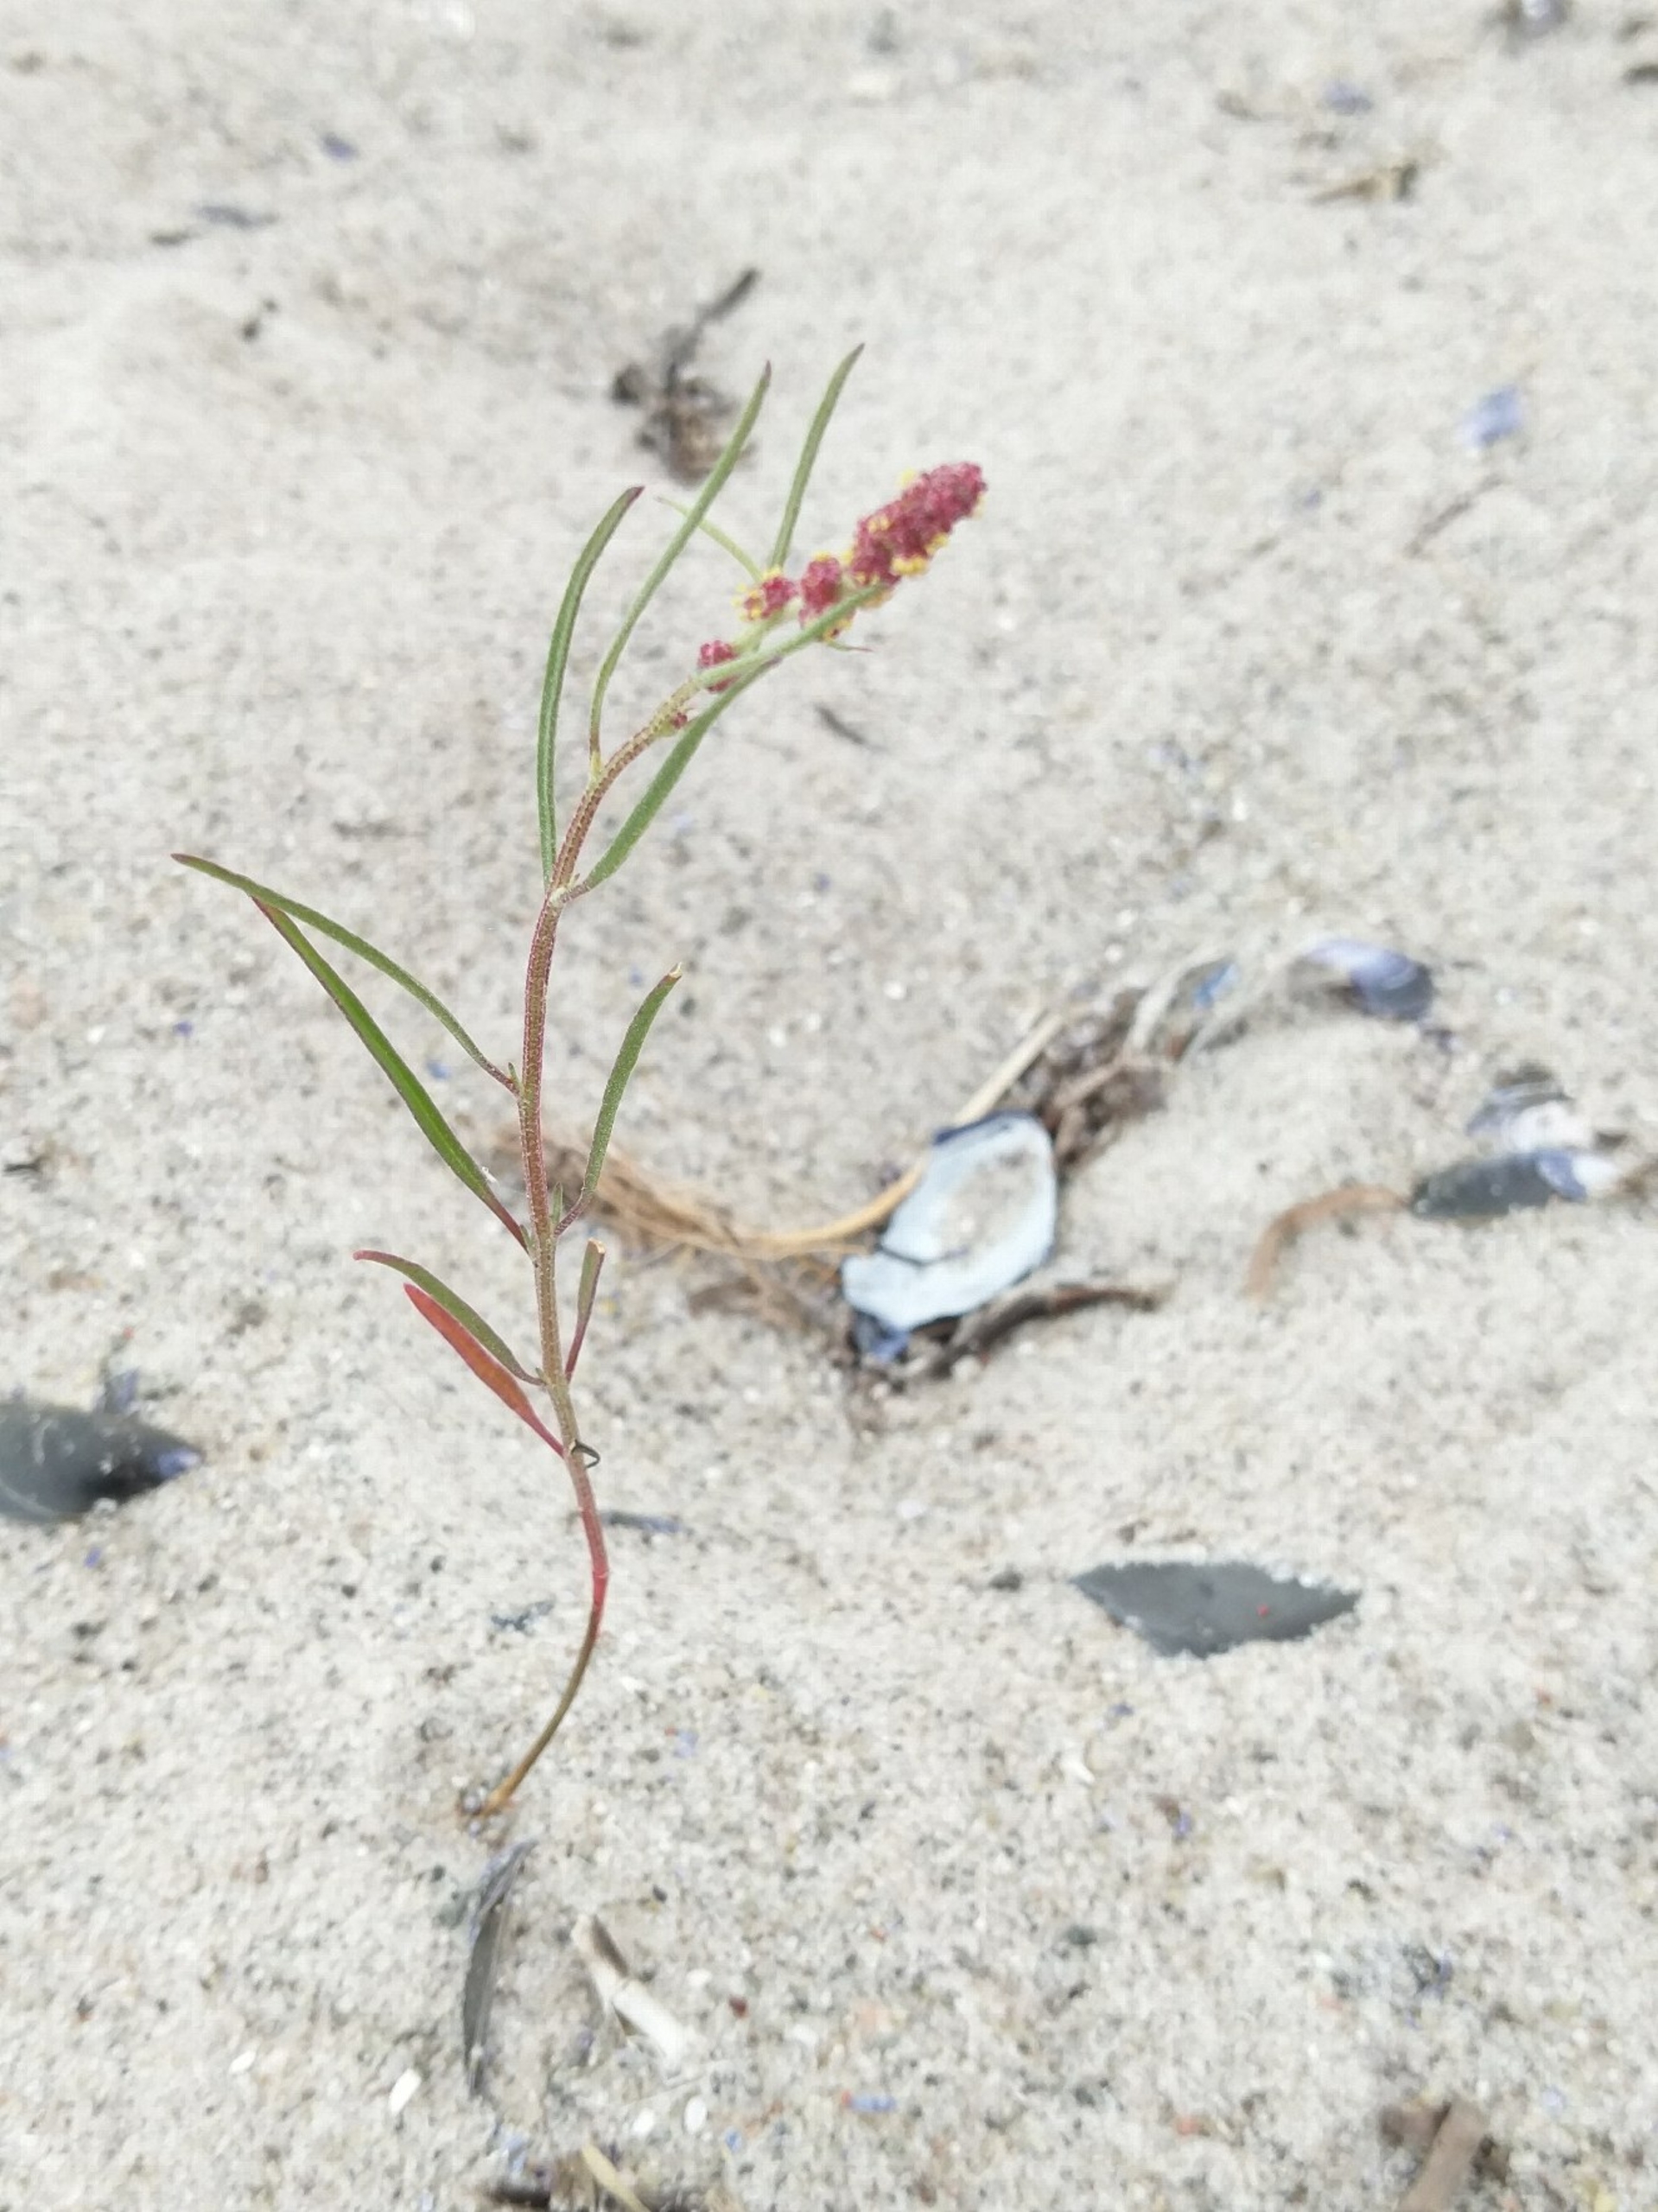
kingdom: Plantae
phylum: Tracheophyta
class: Magnoliopsida
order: Caryophyllales
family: Amaranthaceae
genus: Atriplex
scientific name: Atriplex littoralis
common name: Strand-mælde
